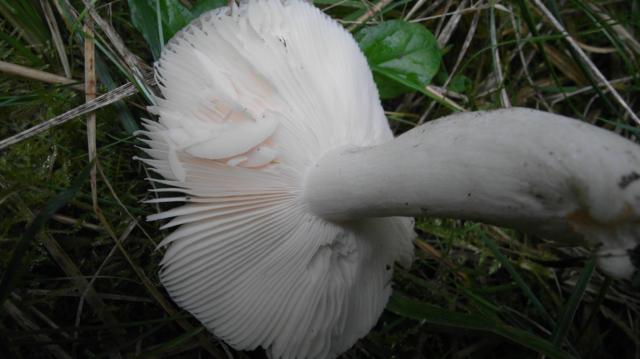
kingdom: Fungi
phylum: Basidiomycota
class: Agaricomycetes
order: Russulales
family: Russulaceae
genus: Russula
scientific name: Russula grisea
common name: grålig skørhat
